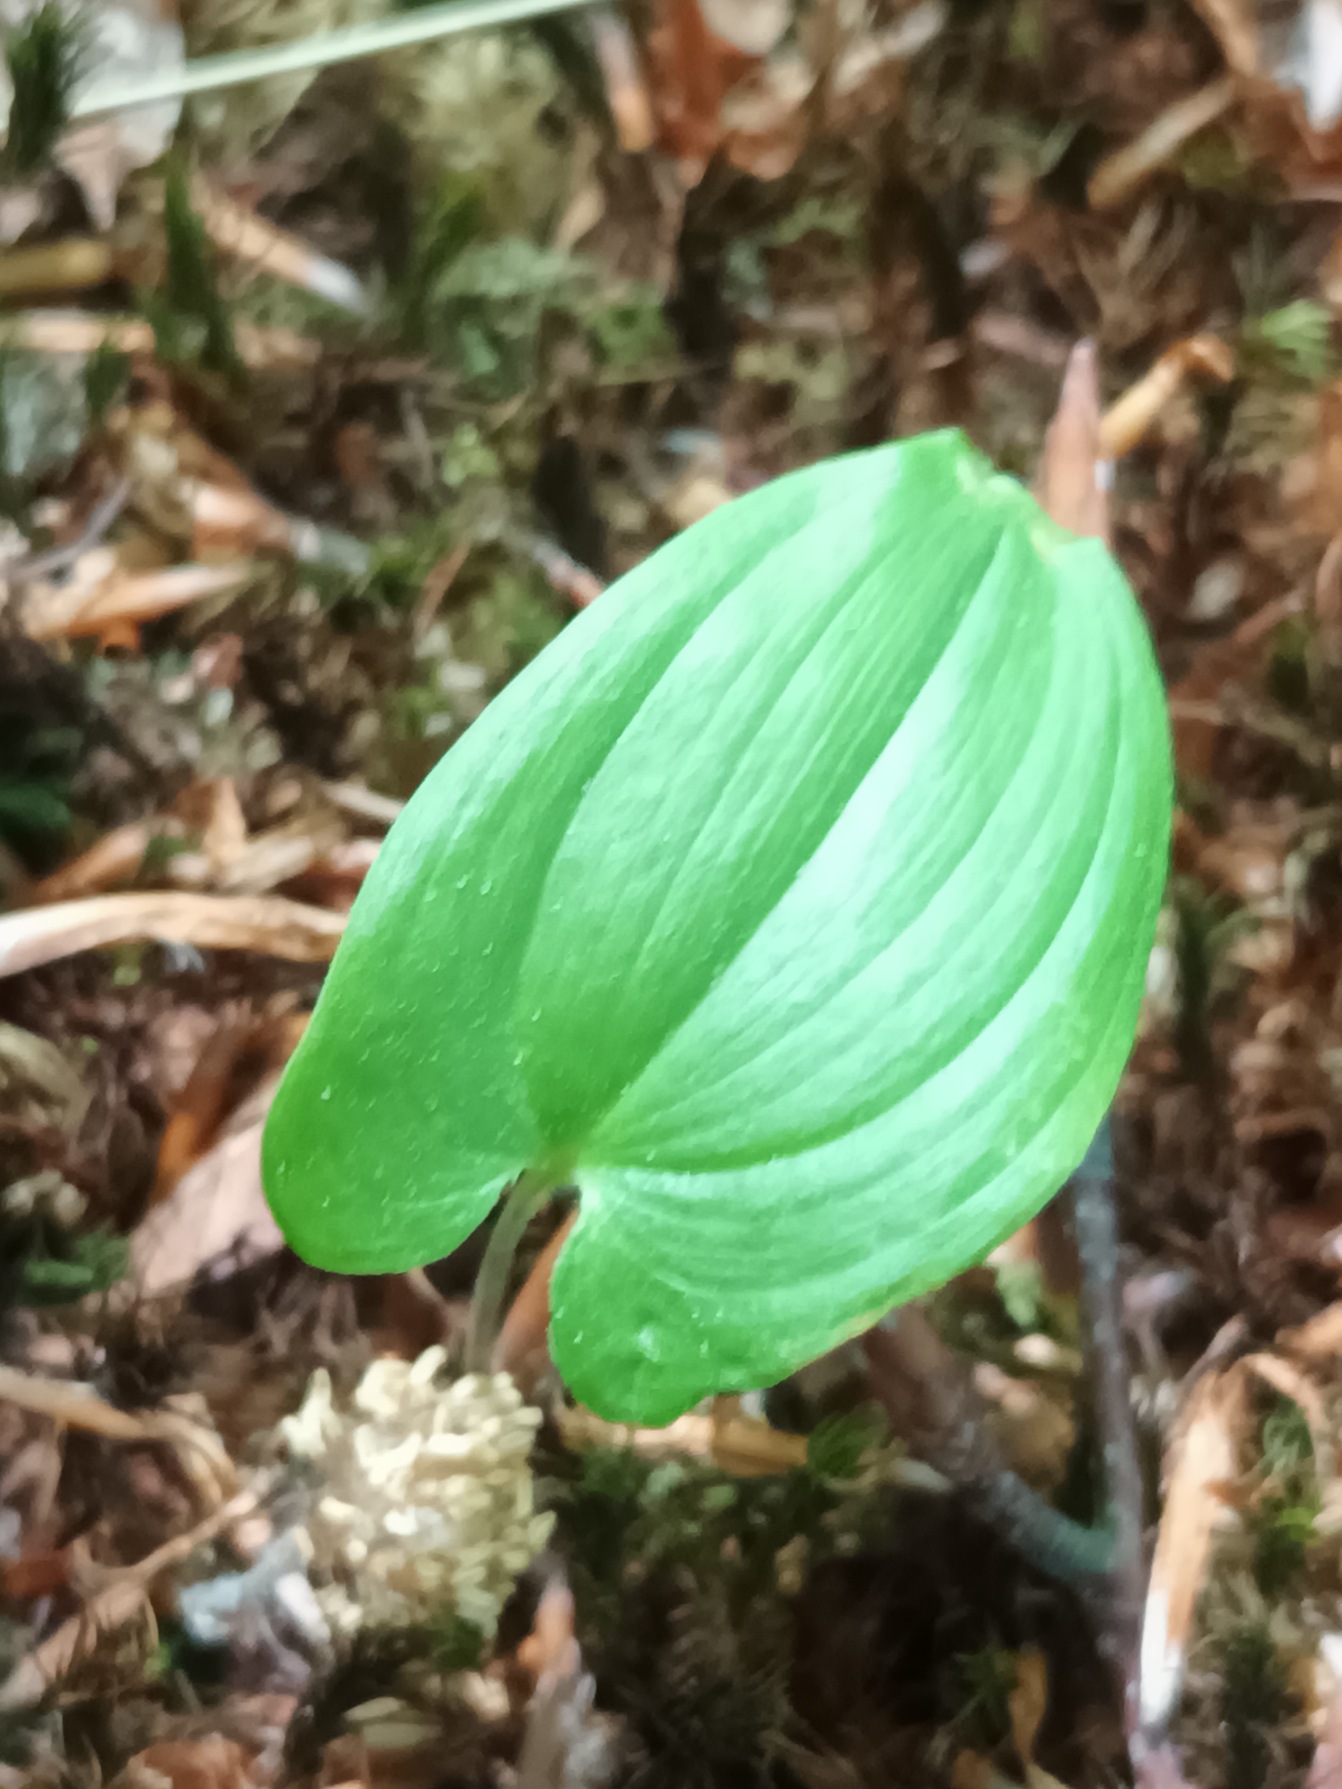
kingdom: Plantae
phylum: Tracheophyta
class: Liliopsida
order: Asparagales
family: Asparagaceae
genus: Maianthemum
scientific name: Maianthemum bifolium
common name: Majblomst
